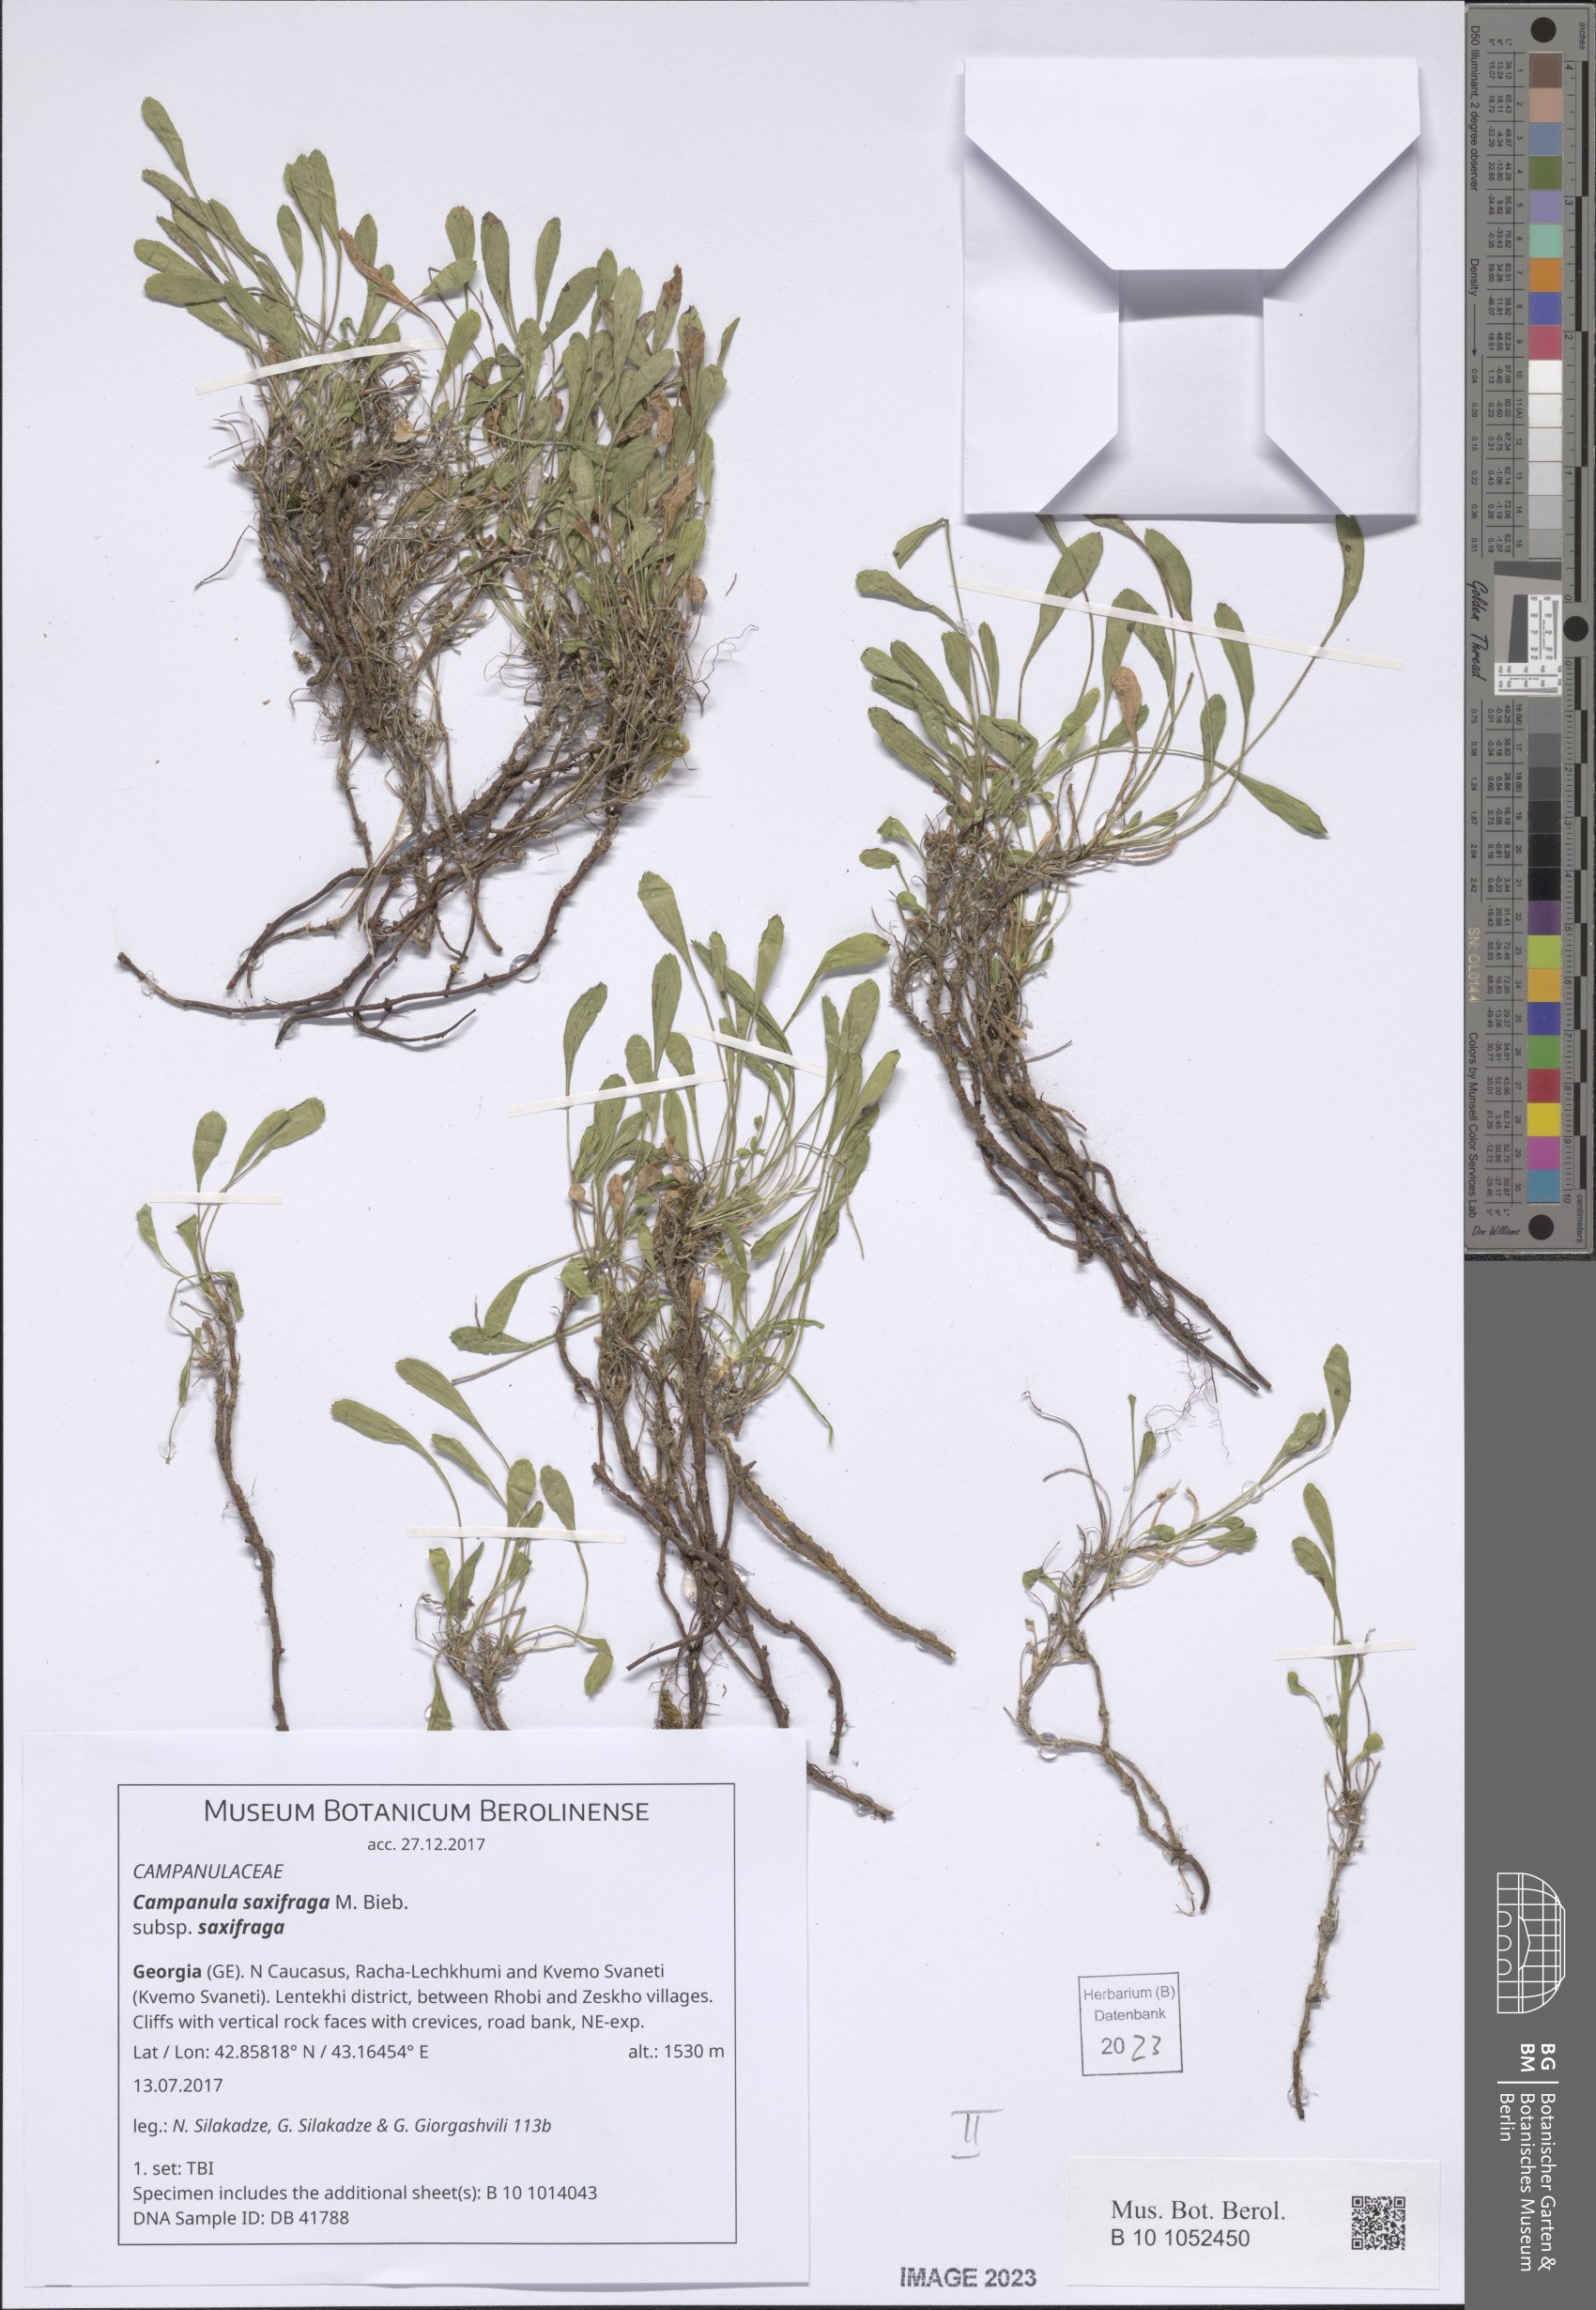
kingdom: Plantae
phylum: Tracheophyta
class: Magnoliopsida
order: Asterales
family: Campanulaceae
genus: Campanula
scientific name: Campanula saxifraga
